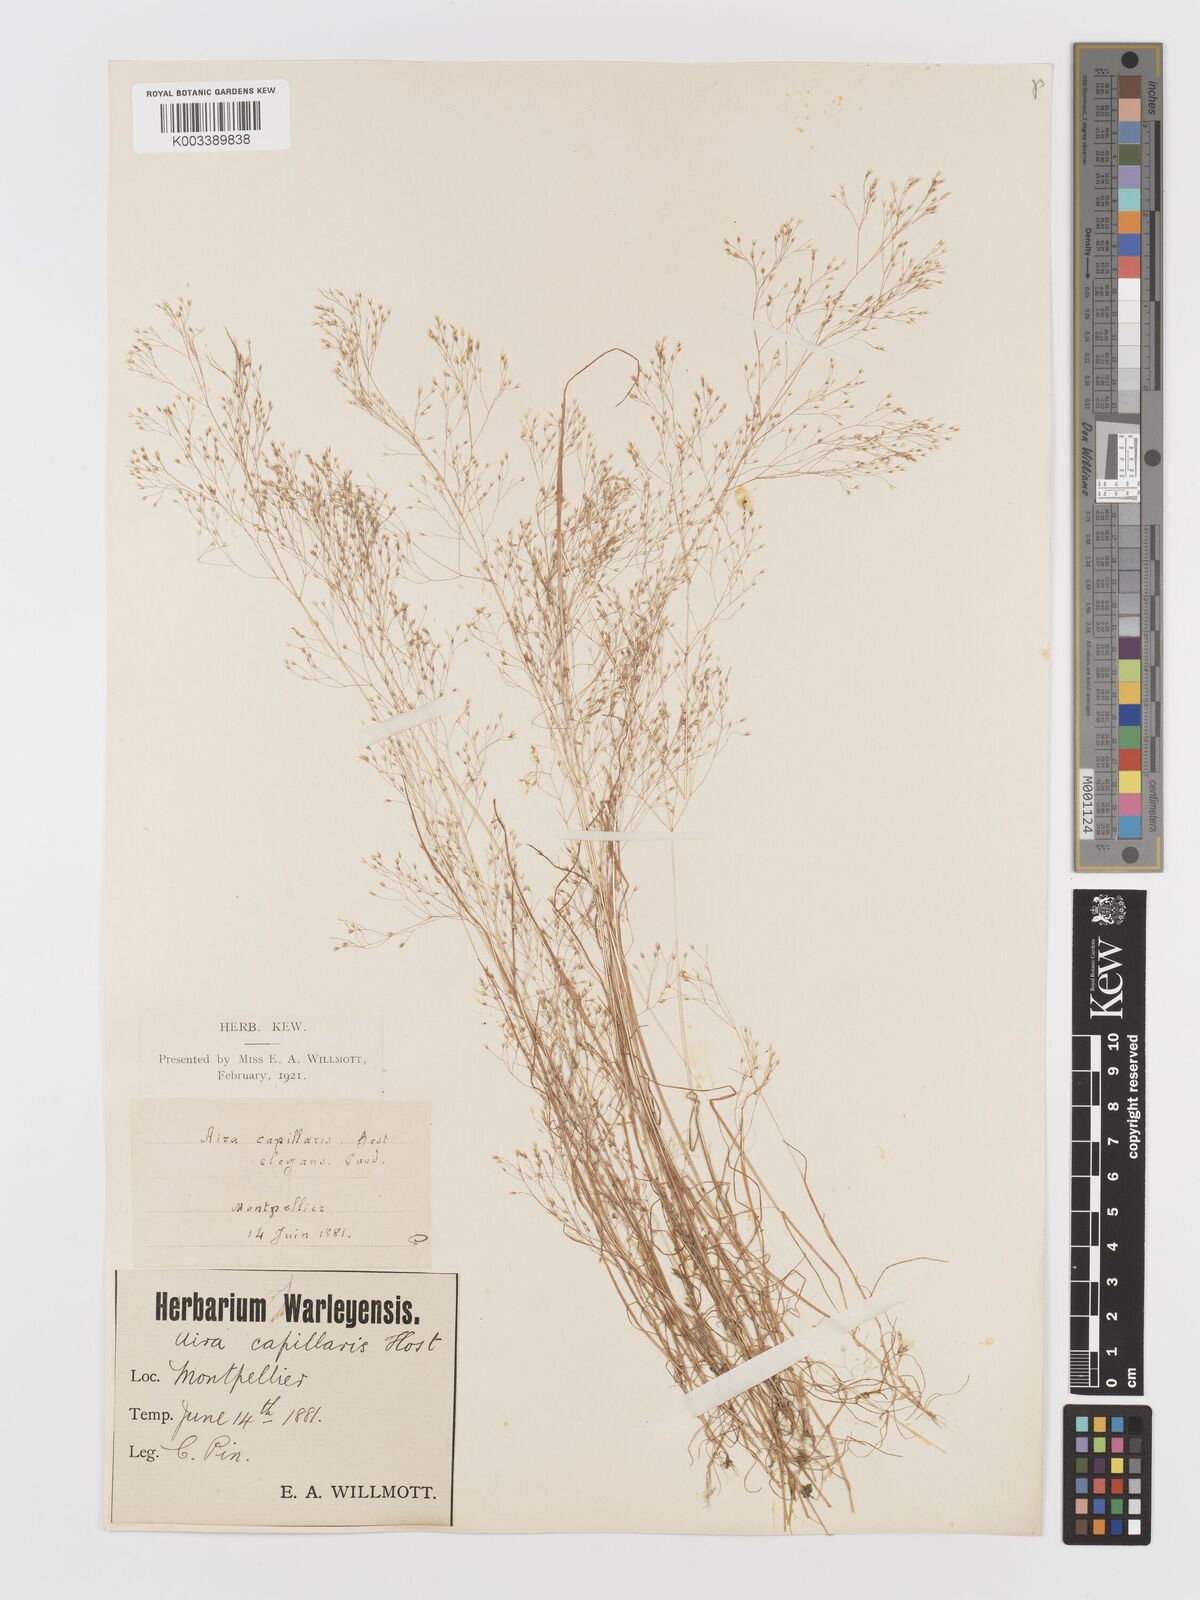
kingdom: Plantae
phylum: Tracheophyta
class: Liliopsida
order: Poales
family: Poaceae
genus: Aira
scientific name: Aira elegans
